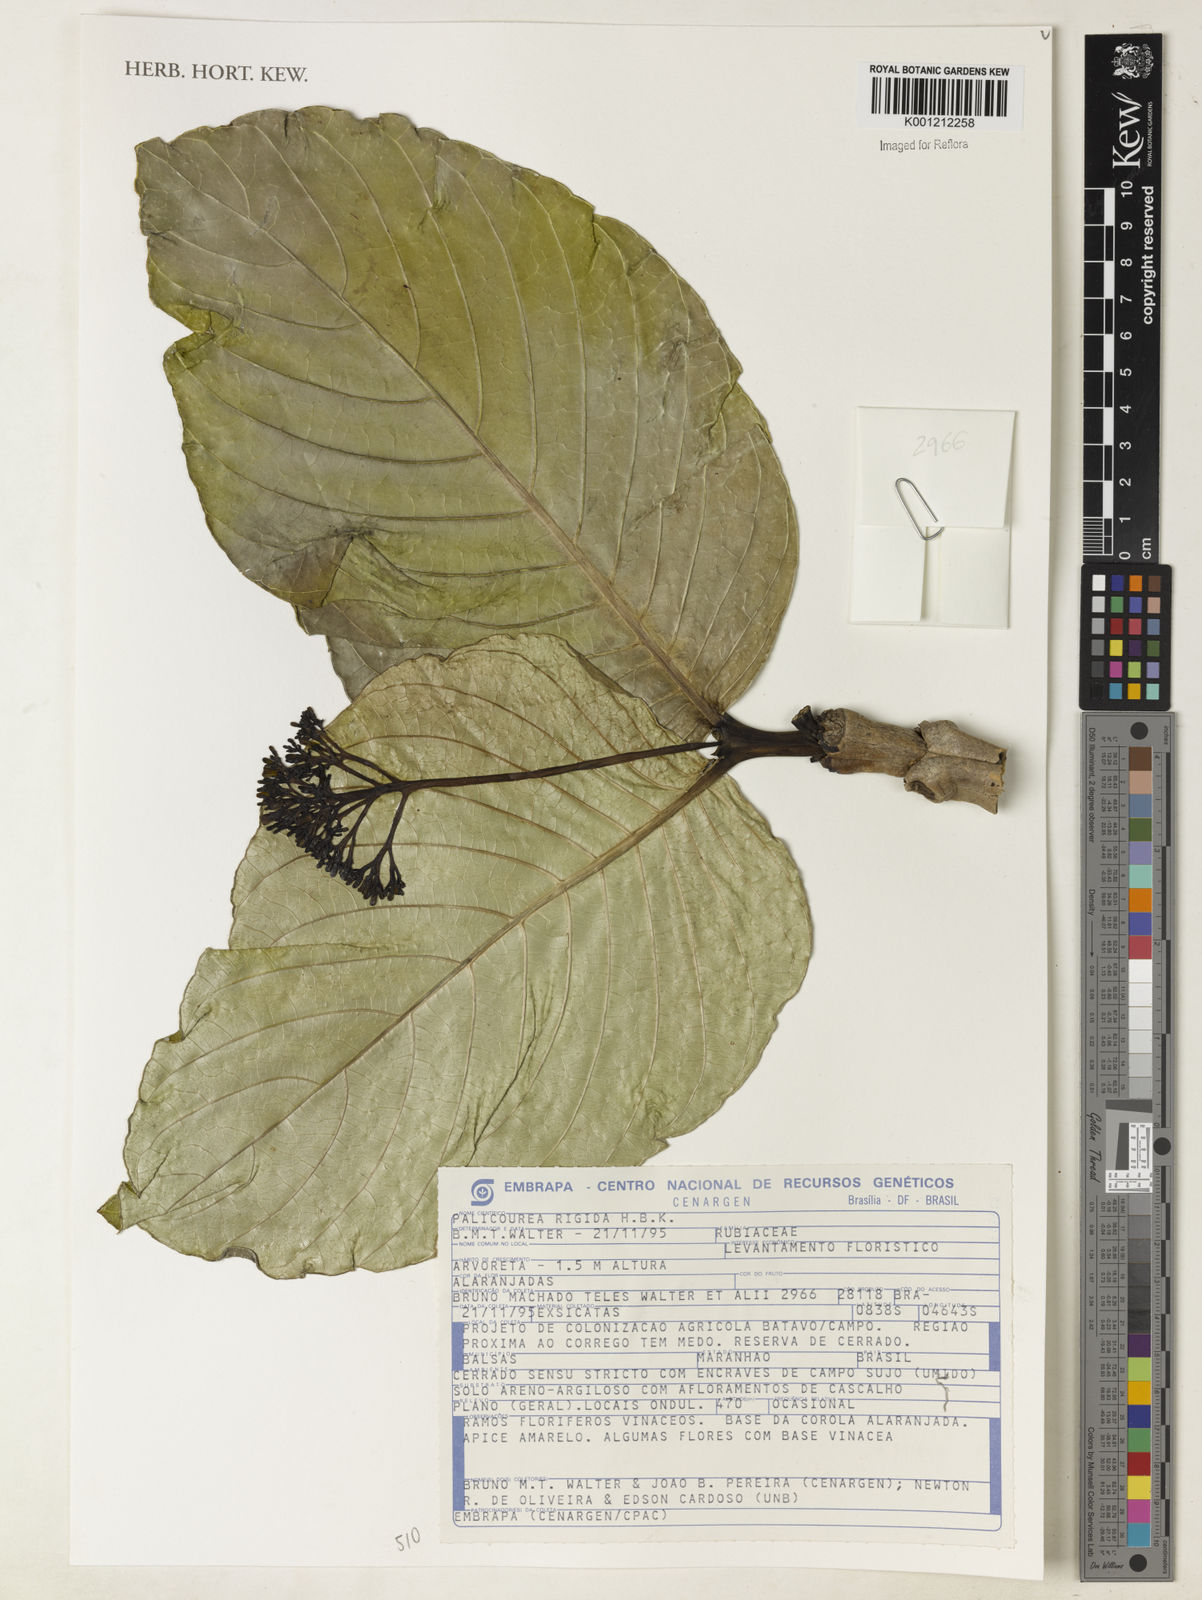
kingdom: Plantae
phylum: Tracheophyta
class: Magnoliopsida
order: Gentianales
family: Rubiaceae
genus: Palicourea
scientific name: Palicourea rigida
